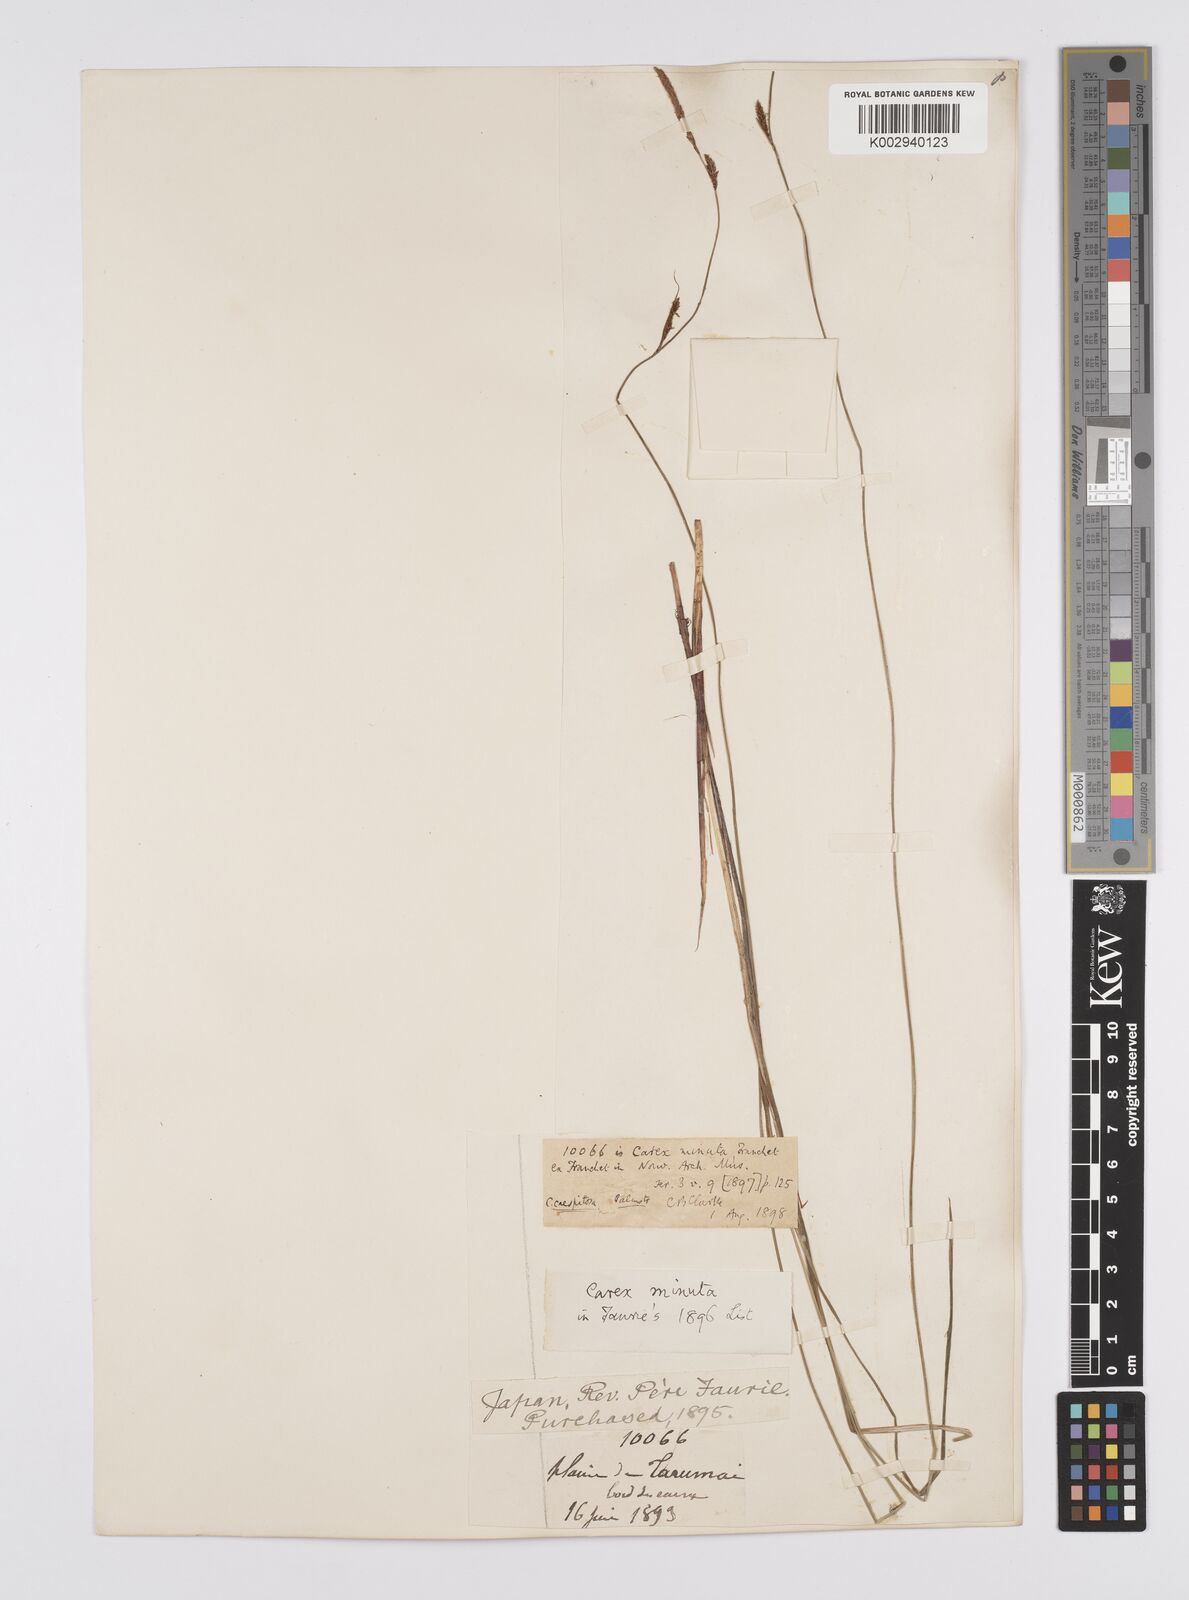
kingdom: Plantae
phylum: Tracheophyta
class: Liliopsida
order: Poales
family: Cyperaceae
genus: Carex
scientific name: Carex cespitosa
